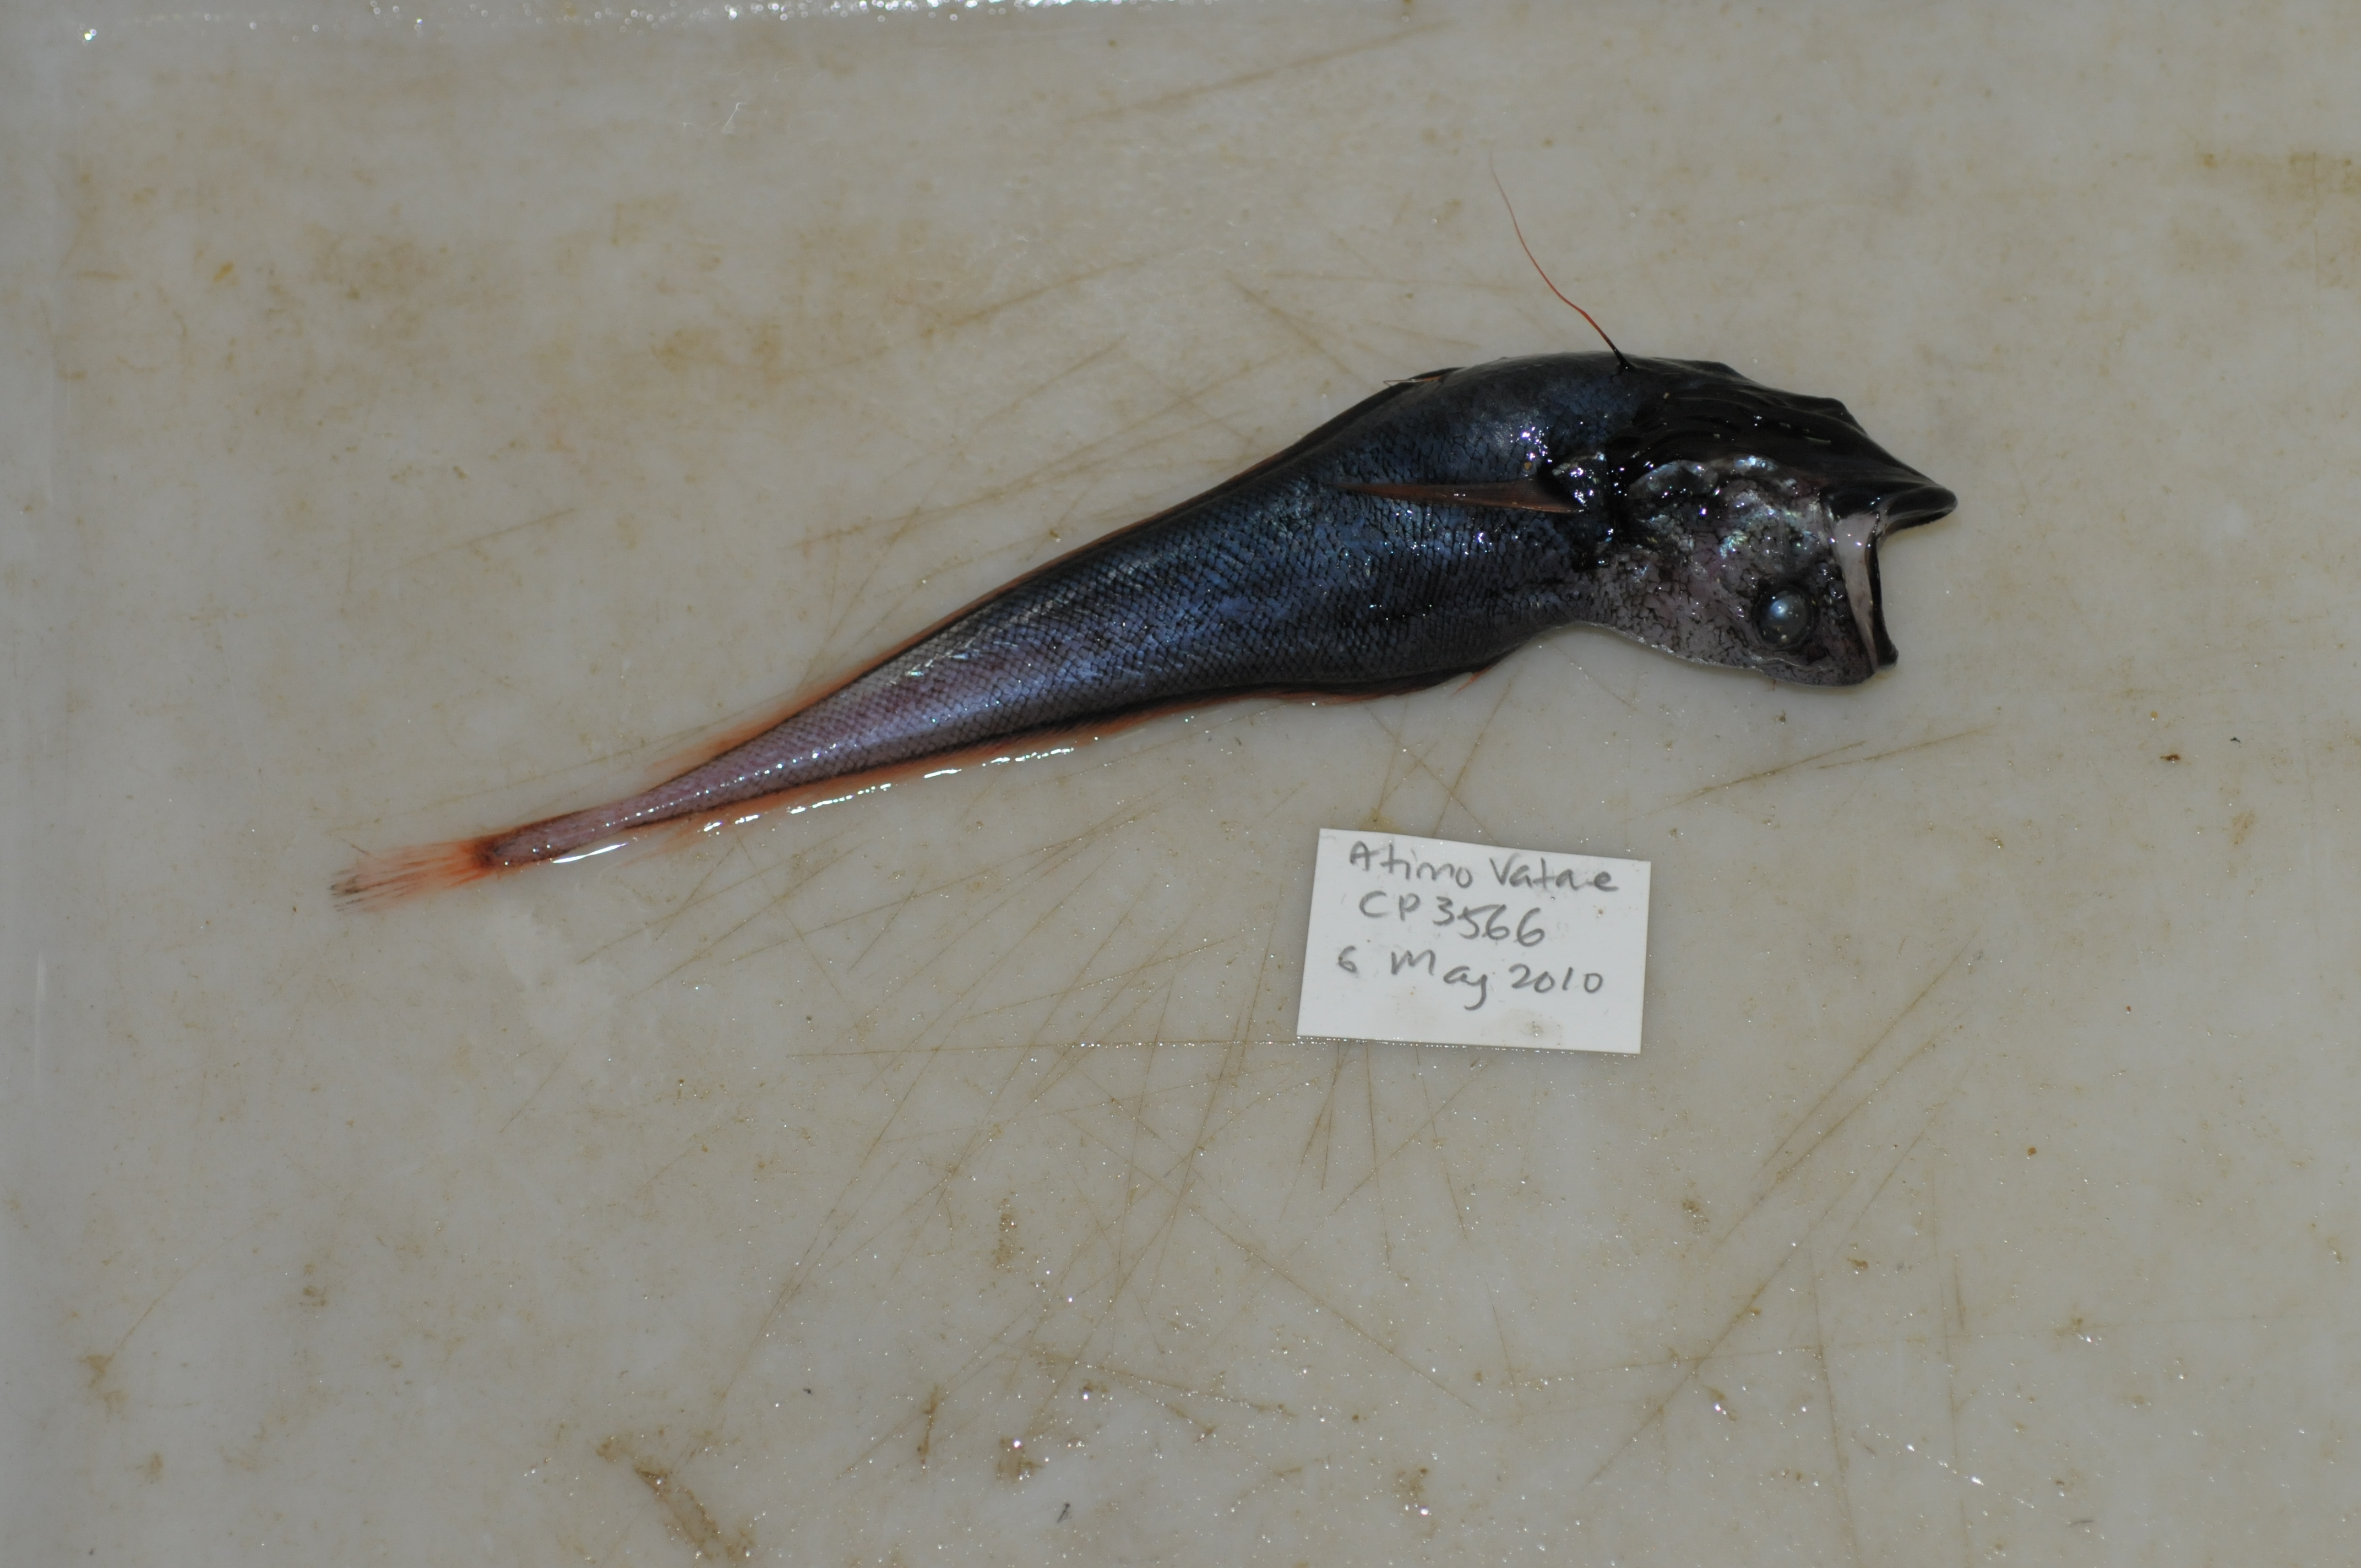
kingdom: Animalia
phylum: Chordata
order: Gadiformes
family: Moridae
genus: Gadella
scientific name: Gadella edelmanni
